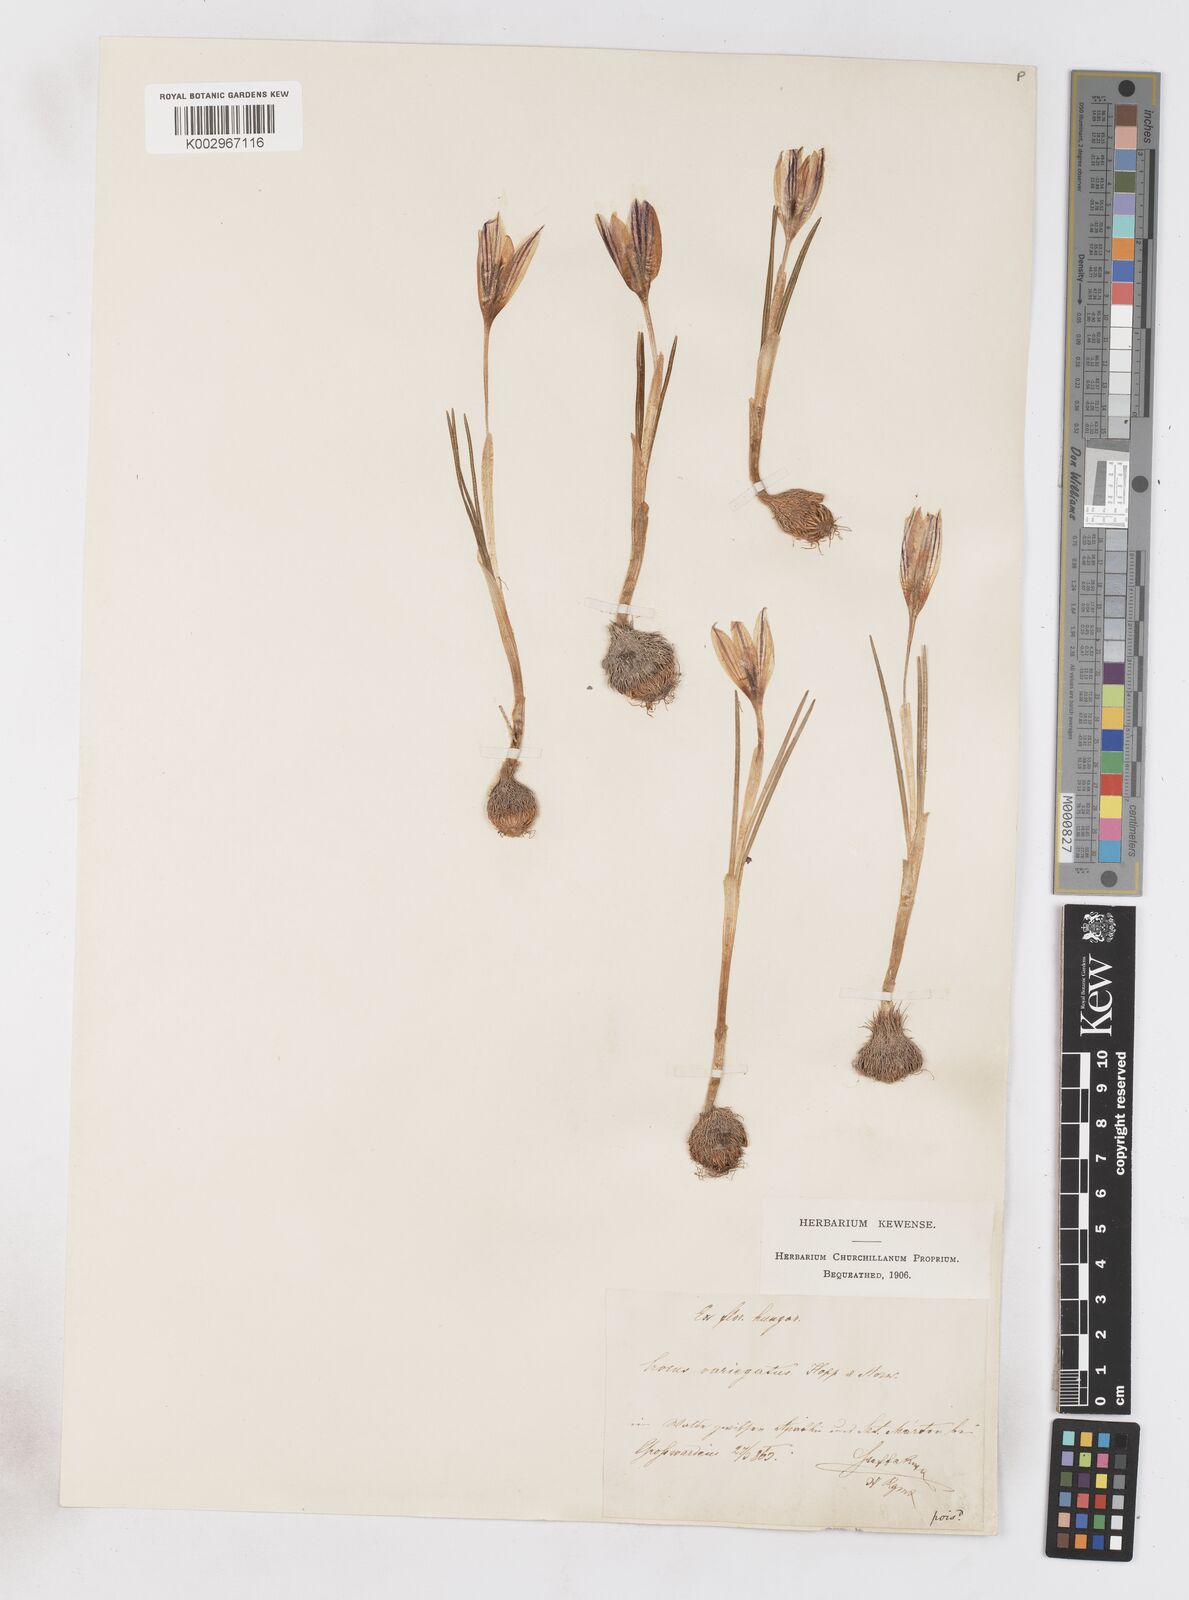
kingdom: Plantae
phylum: Tracheophyta
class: Liliopsida
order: Asparagales
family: Iridaceae
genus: Crocus
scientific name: Crocus reticulatus
